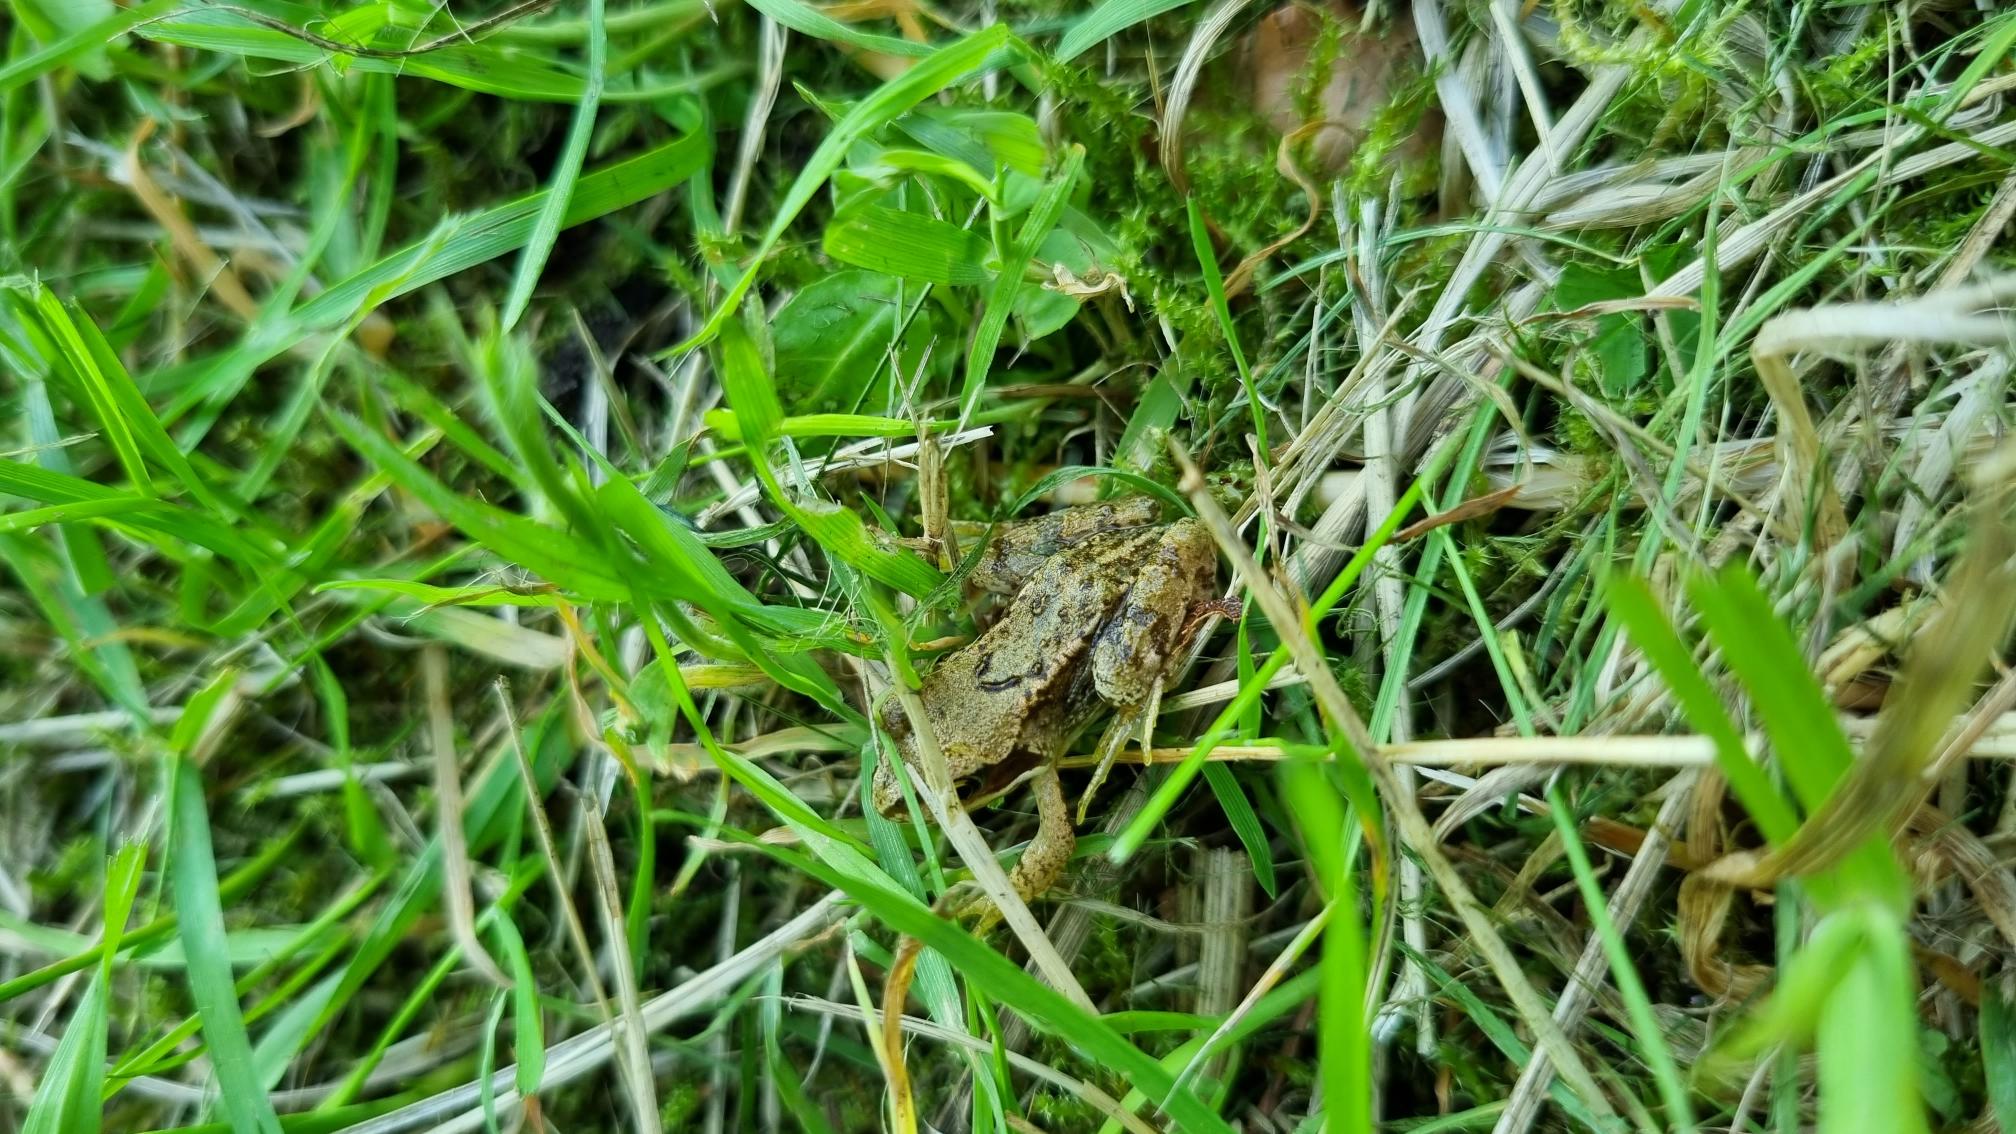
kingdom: Animalia
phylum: Chordata
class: Amphibia
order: Anura
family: Ranidae
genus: Rana
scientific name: Rana temporaria
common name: Butsnudet frø
